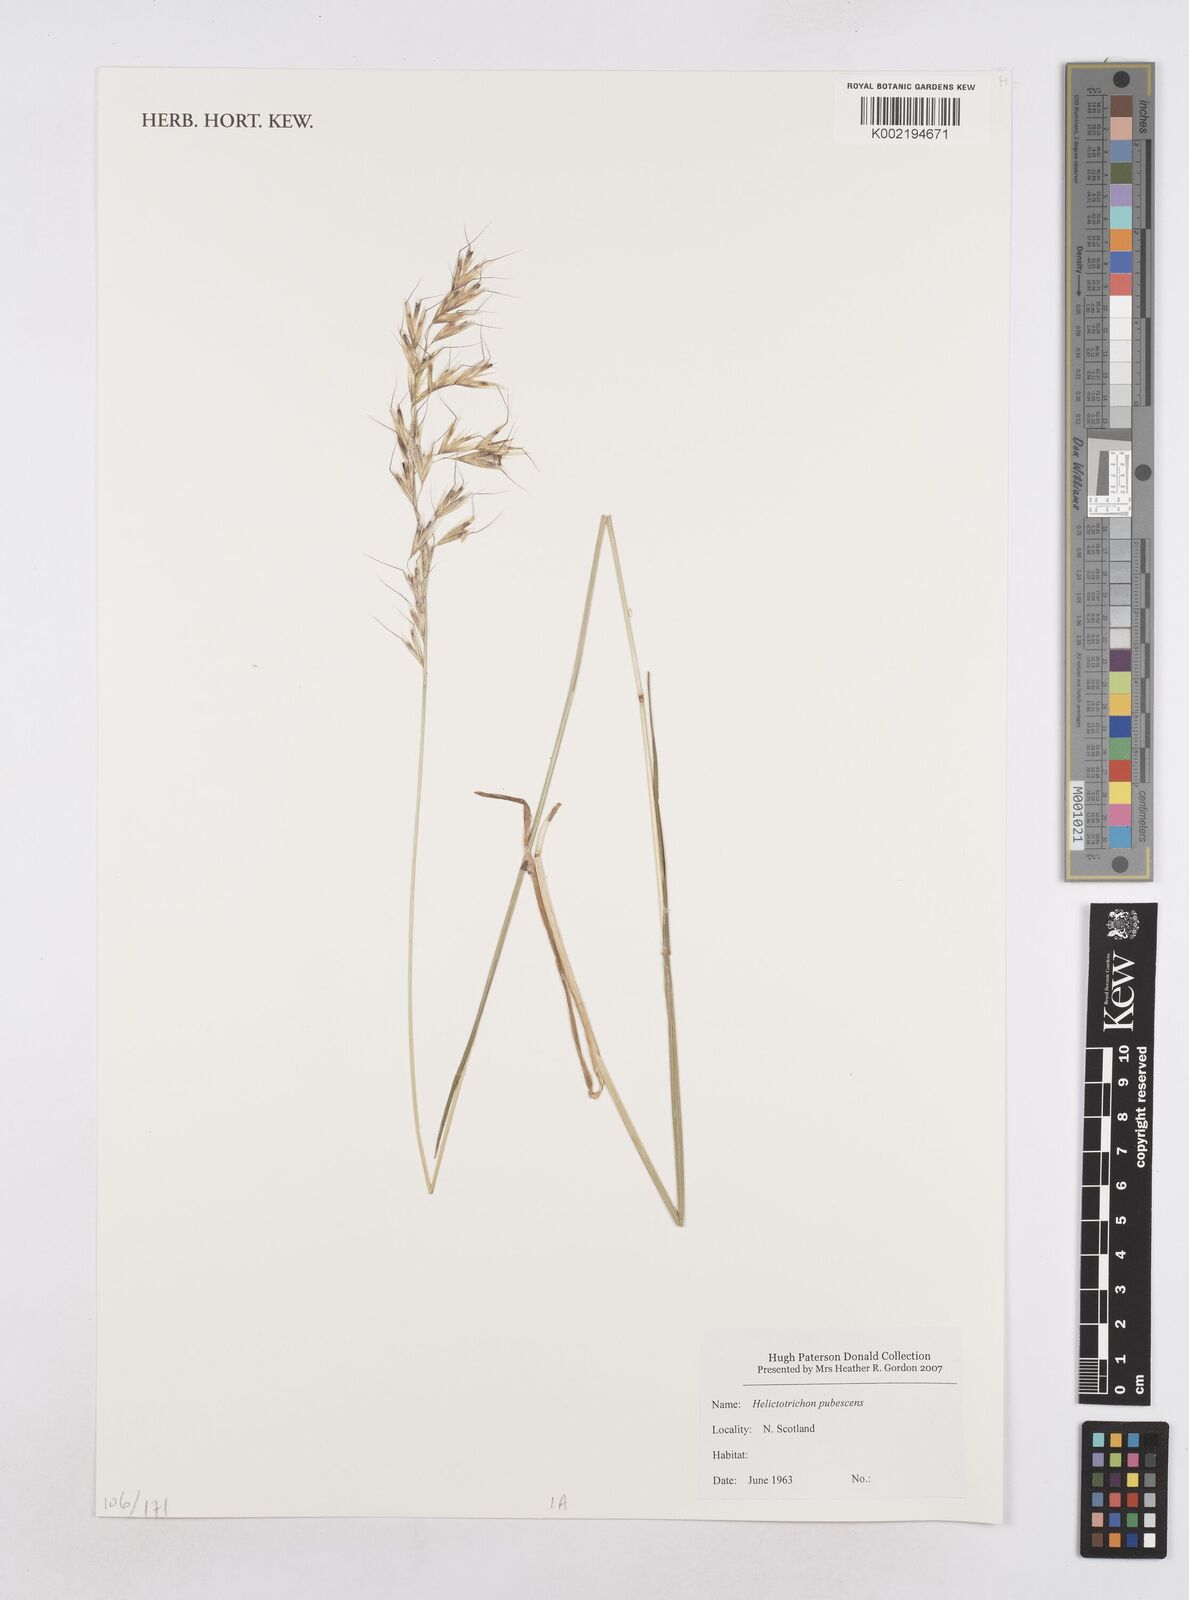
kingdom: Plantae
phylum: Tracheophyta
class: Liliopsida
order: Poales
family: Poaceae
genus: Avenula
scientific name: Avenula pubescens
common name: Downy alpine oatgrass
